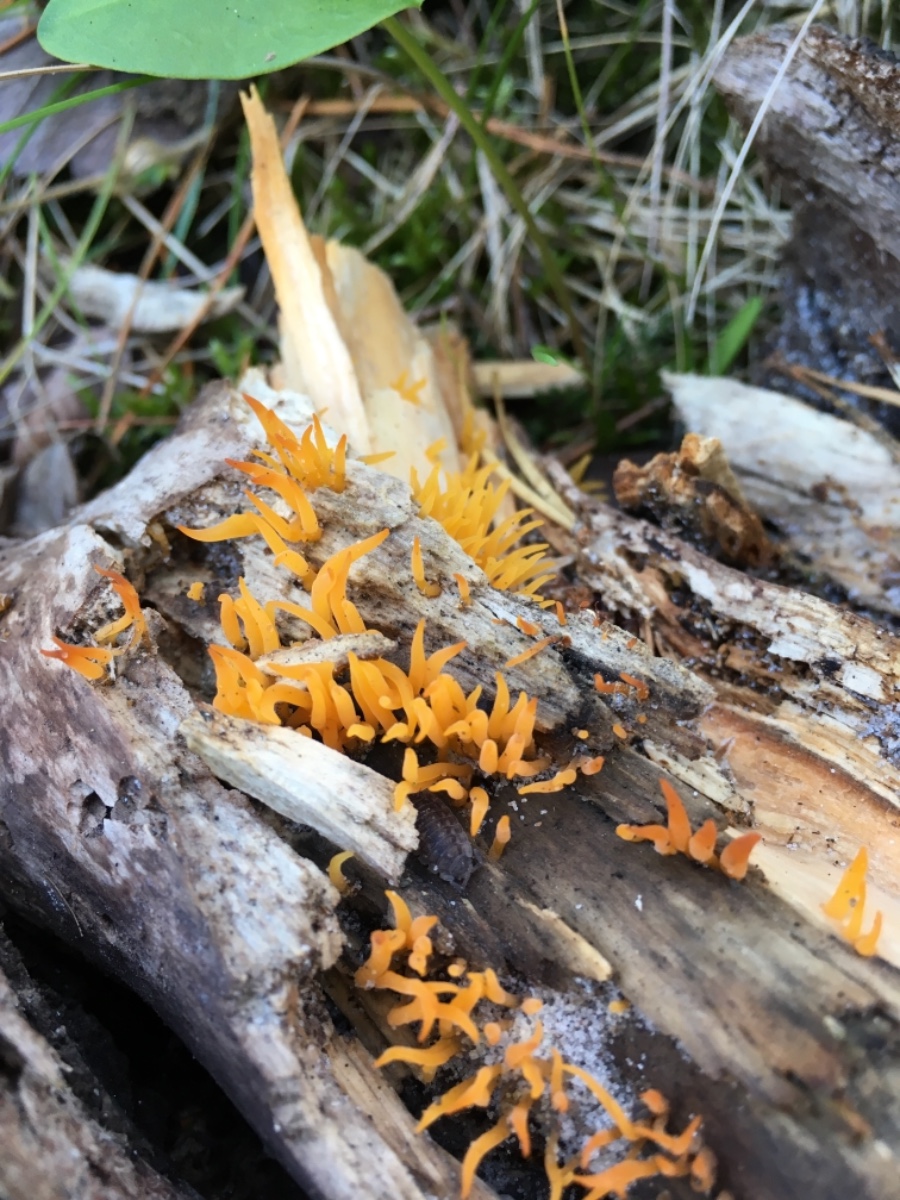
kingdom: Fungi
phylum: Basidiomycota
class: Dacrymycetes
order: Dacrymycetales
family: Dacrymycetaceae
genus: Calocera
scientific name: Calocera furcata
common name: fyrre-guldgaffel
